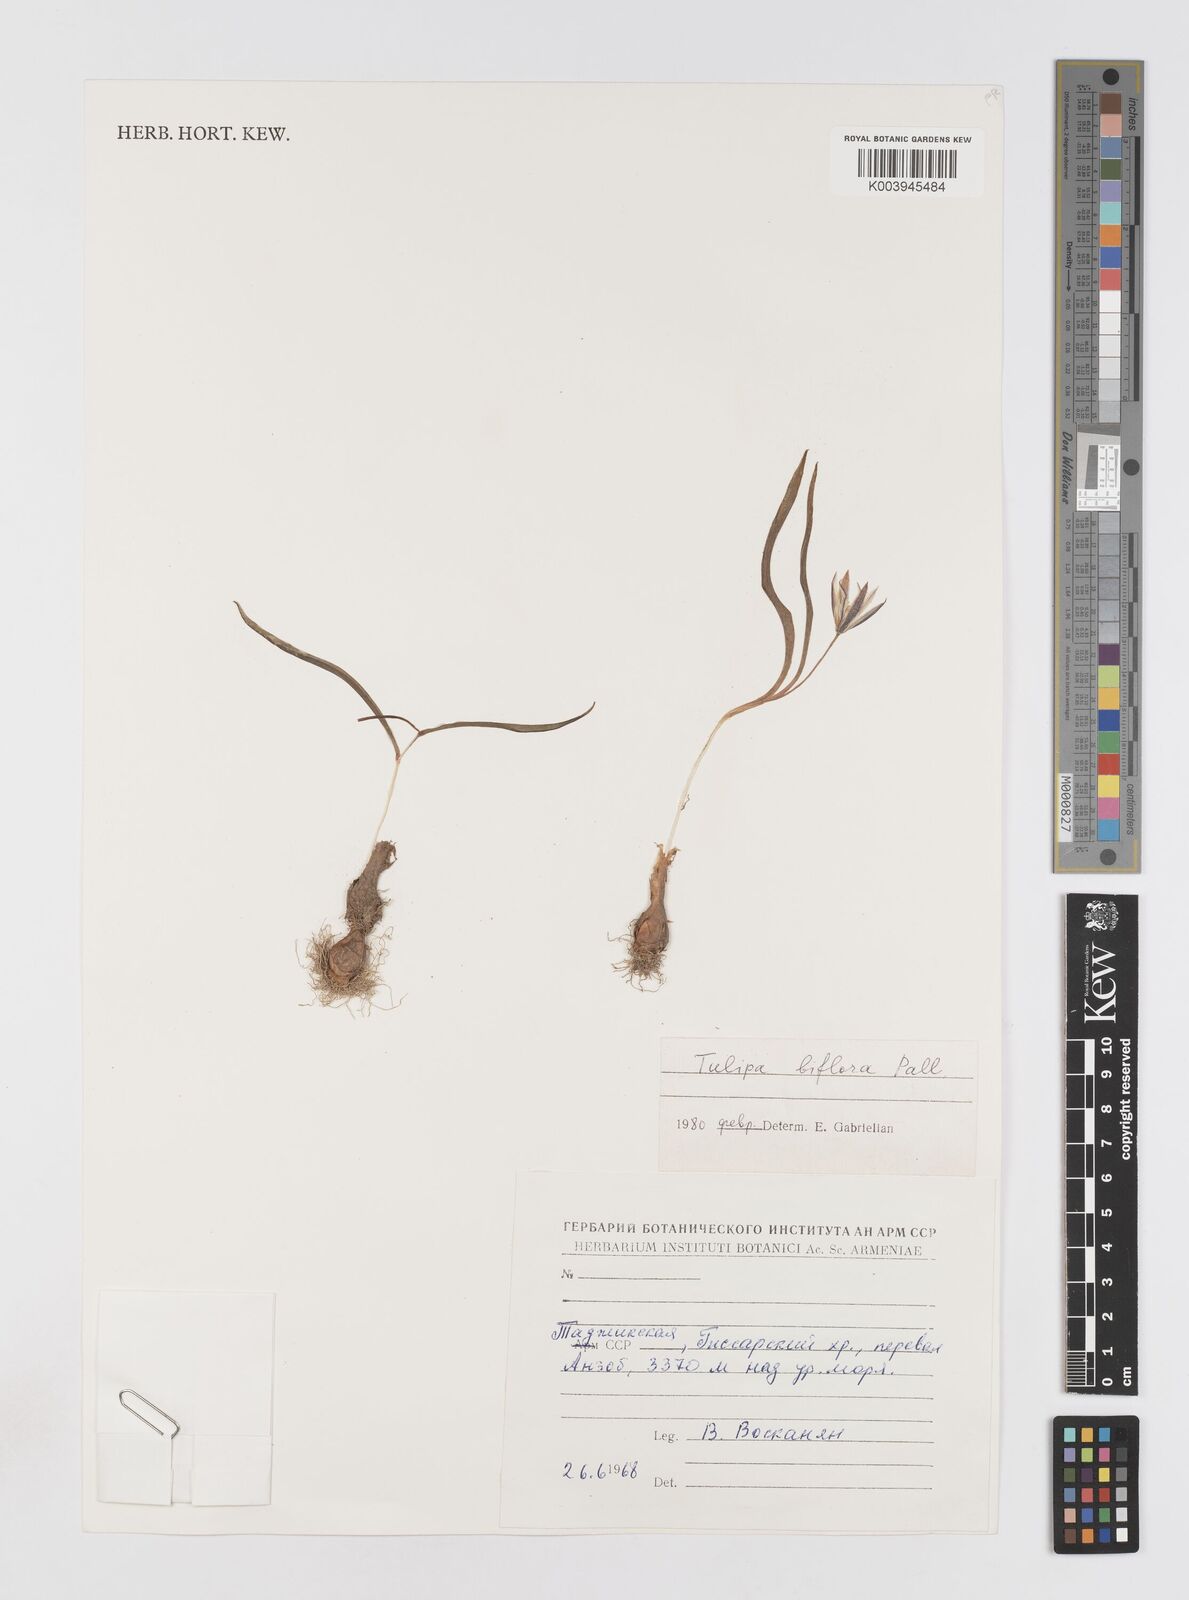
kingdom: Plantae
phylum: Tracheophyta
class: Liliopsida
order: Liliales
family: Liliaceae
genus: Tulipa
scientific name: Tulipa biflora
